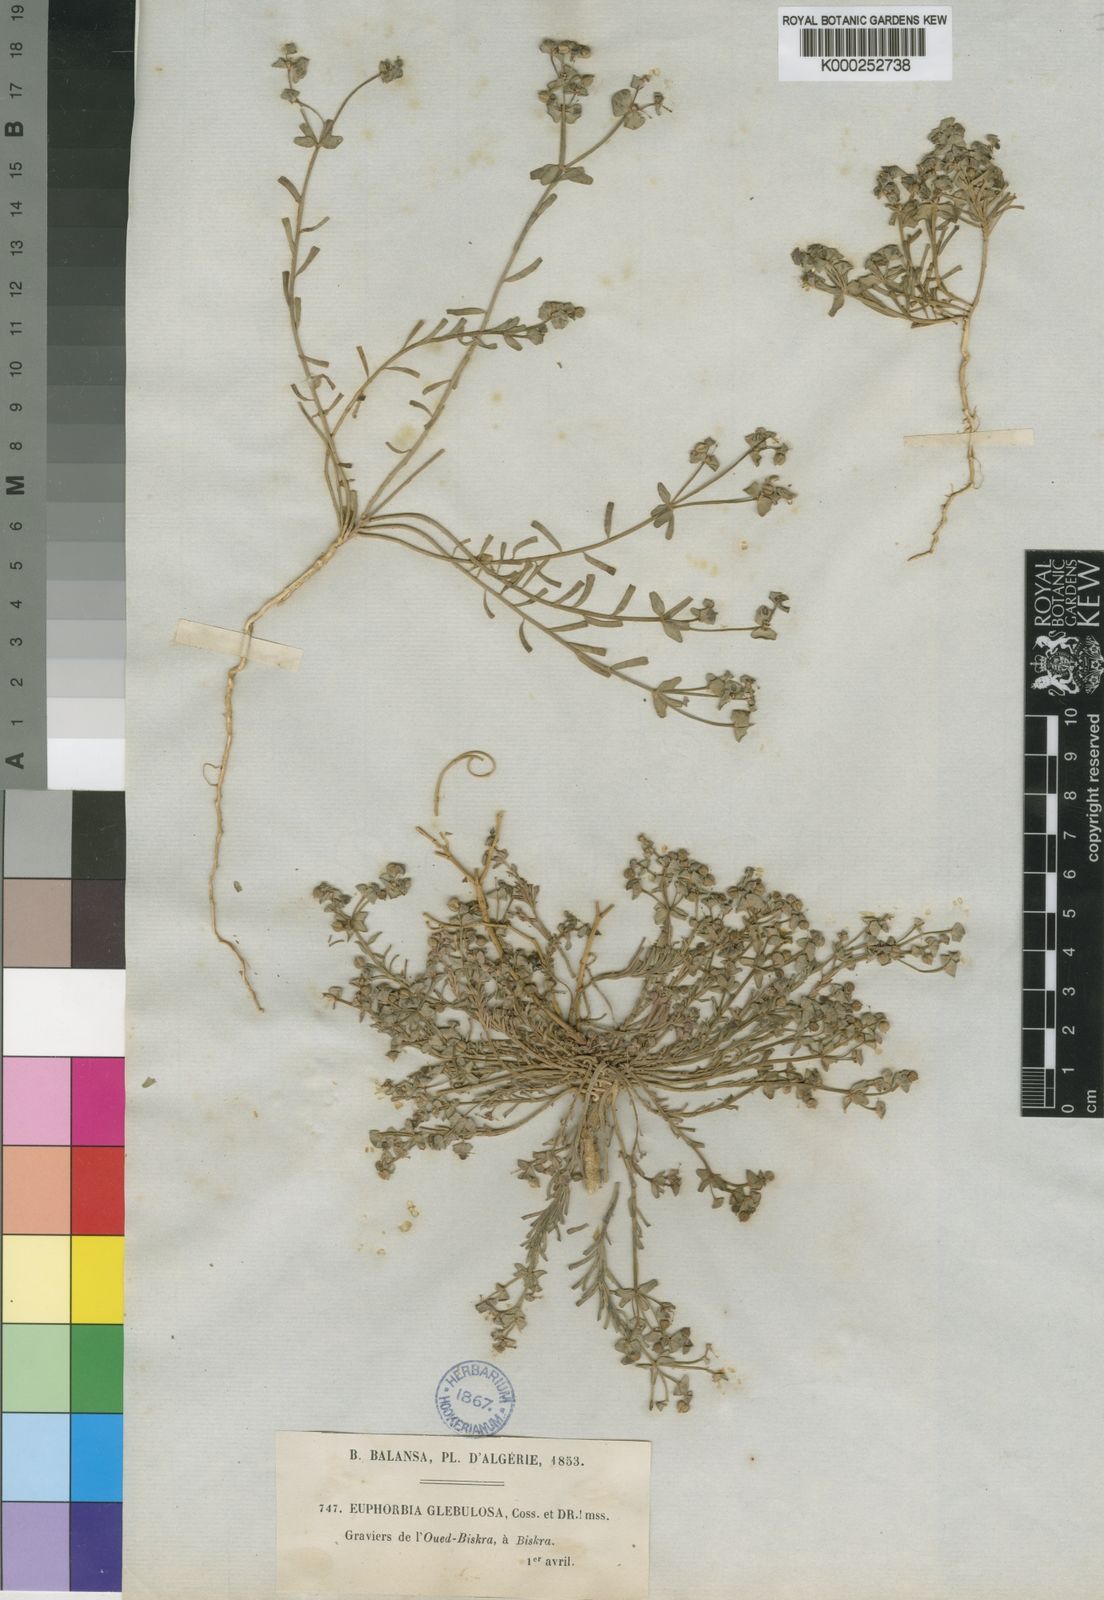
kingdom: Plantae
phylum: Tracheophyta
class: Magnoliopsida
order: Malpighiales
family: Euphorbiaceae
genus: Euphorbia
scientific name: Euphorbia dracunculoides
